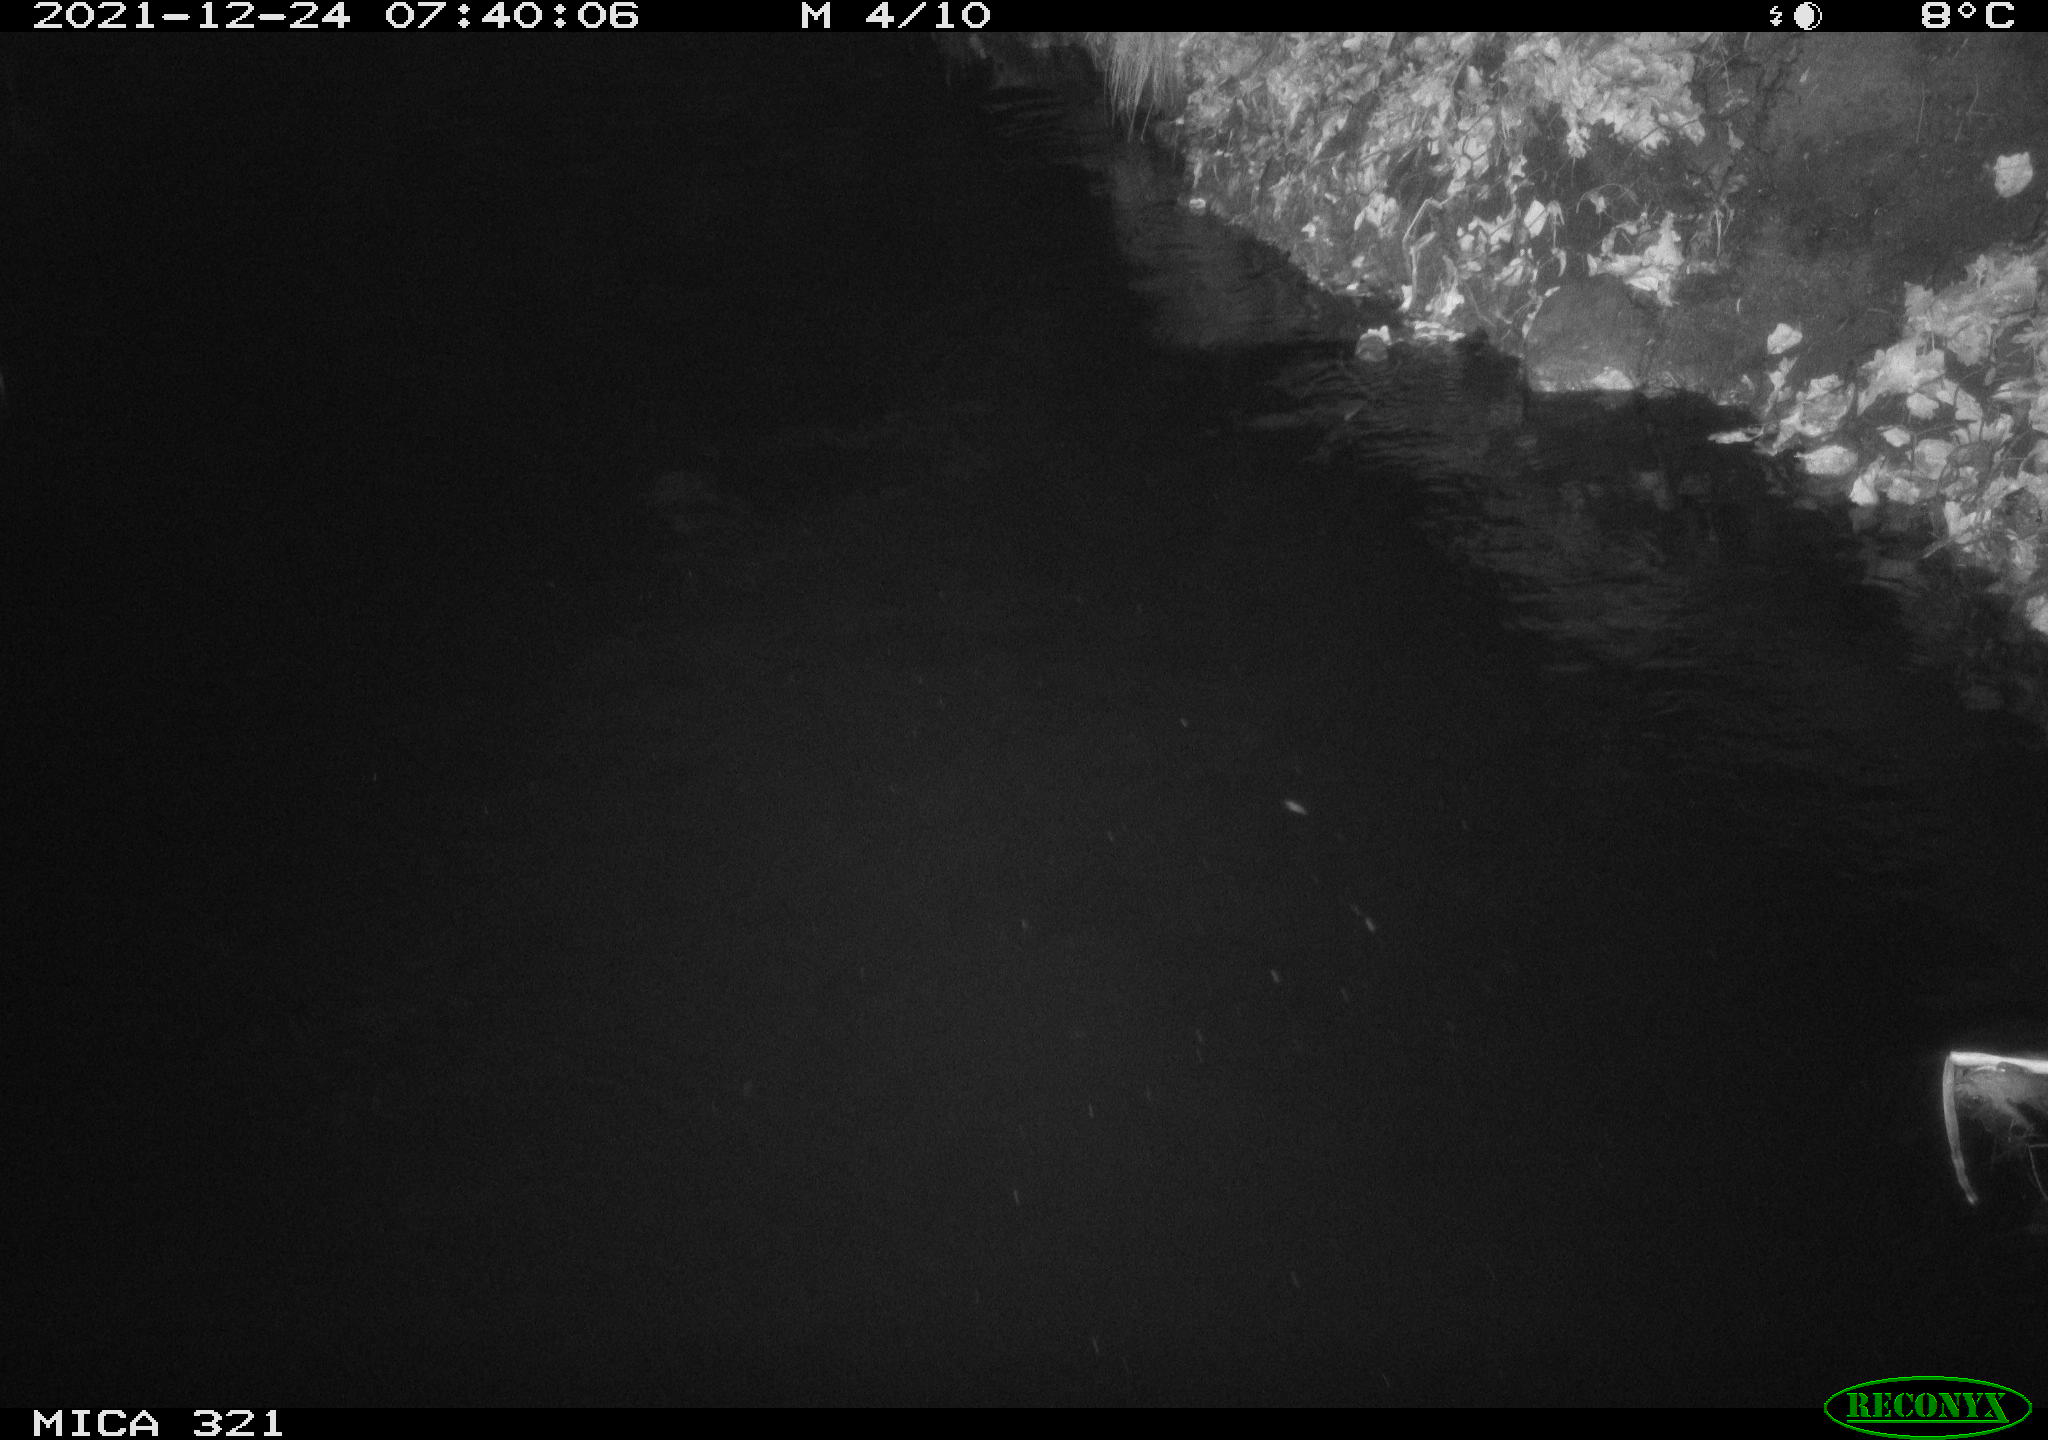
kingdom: Animalia
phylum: Chordata
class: Aves
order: Anseriformes
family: Anatidae
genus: Anas
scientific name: Anas
